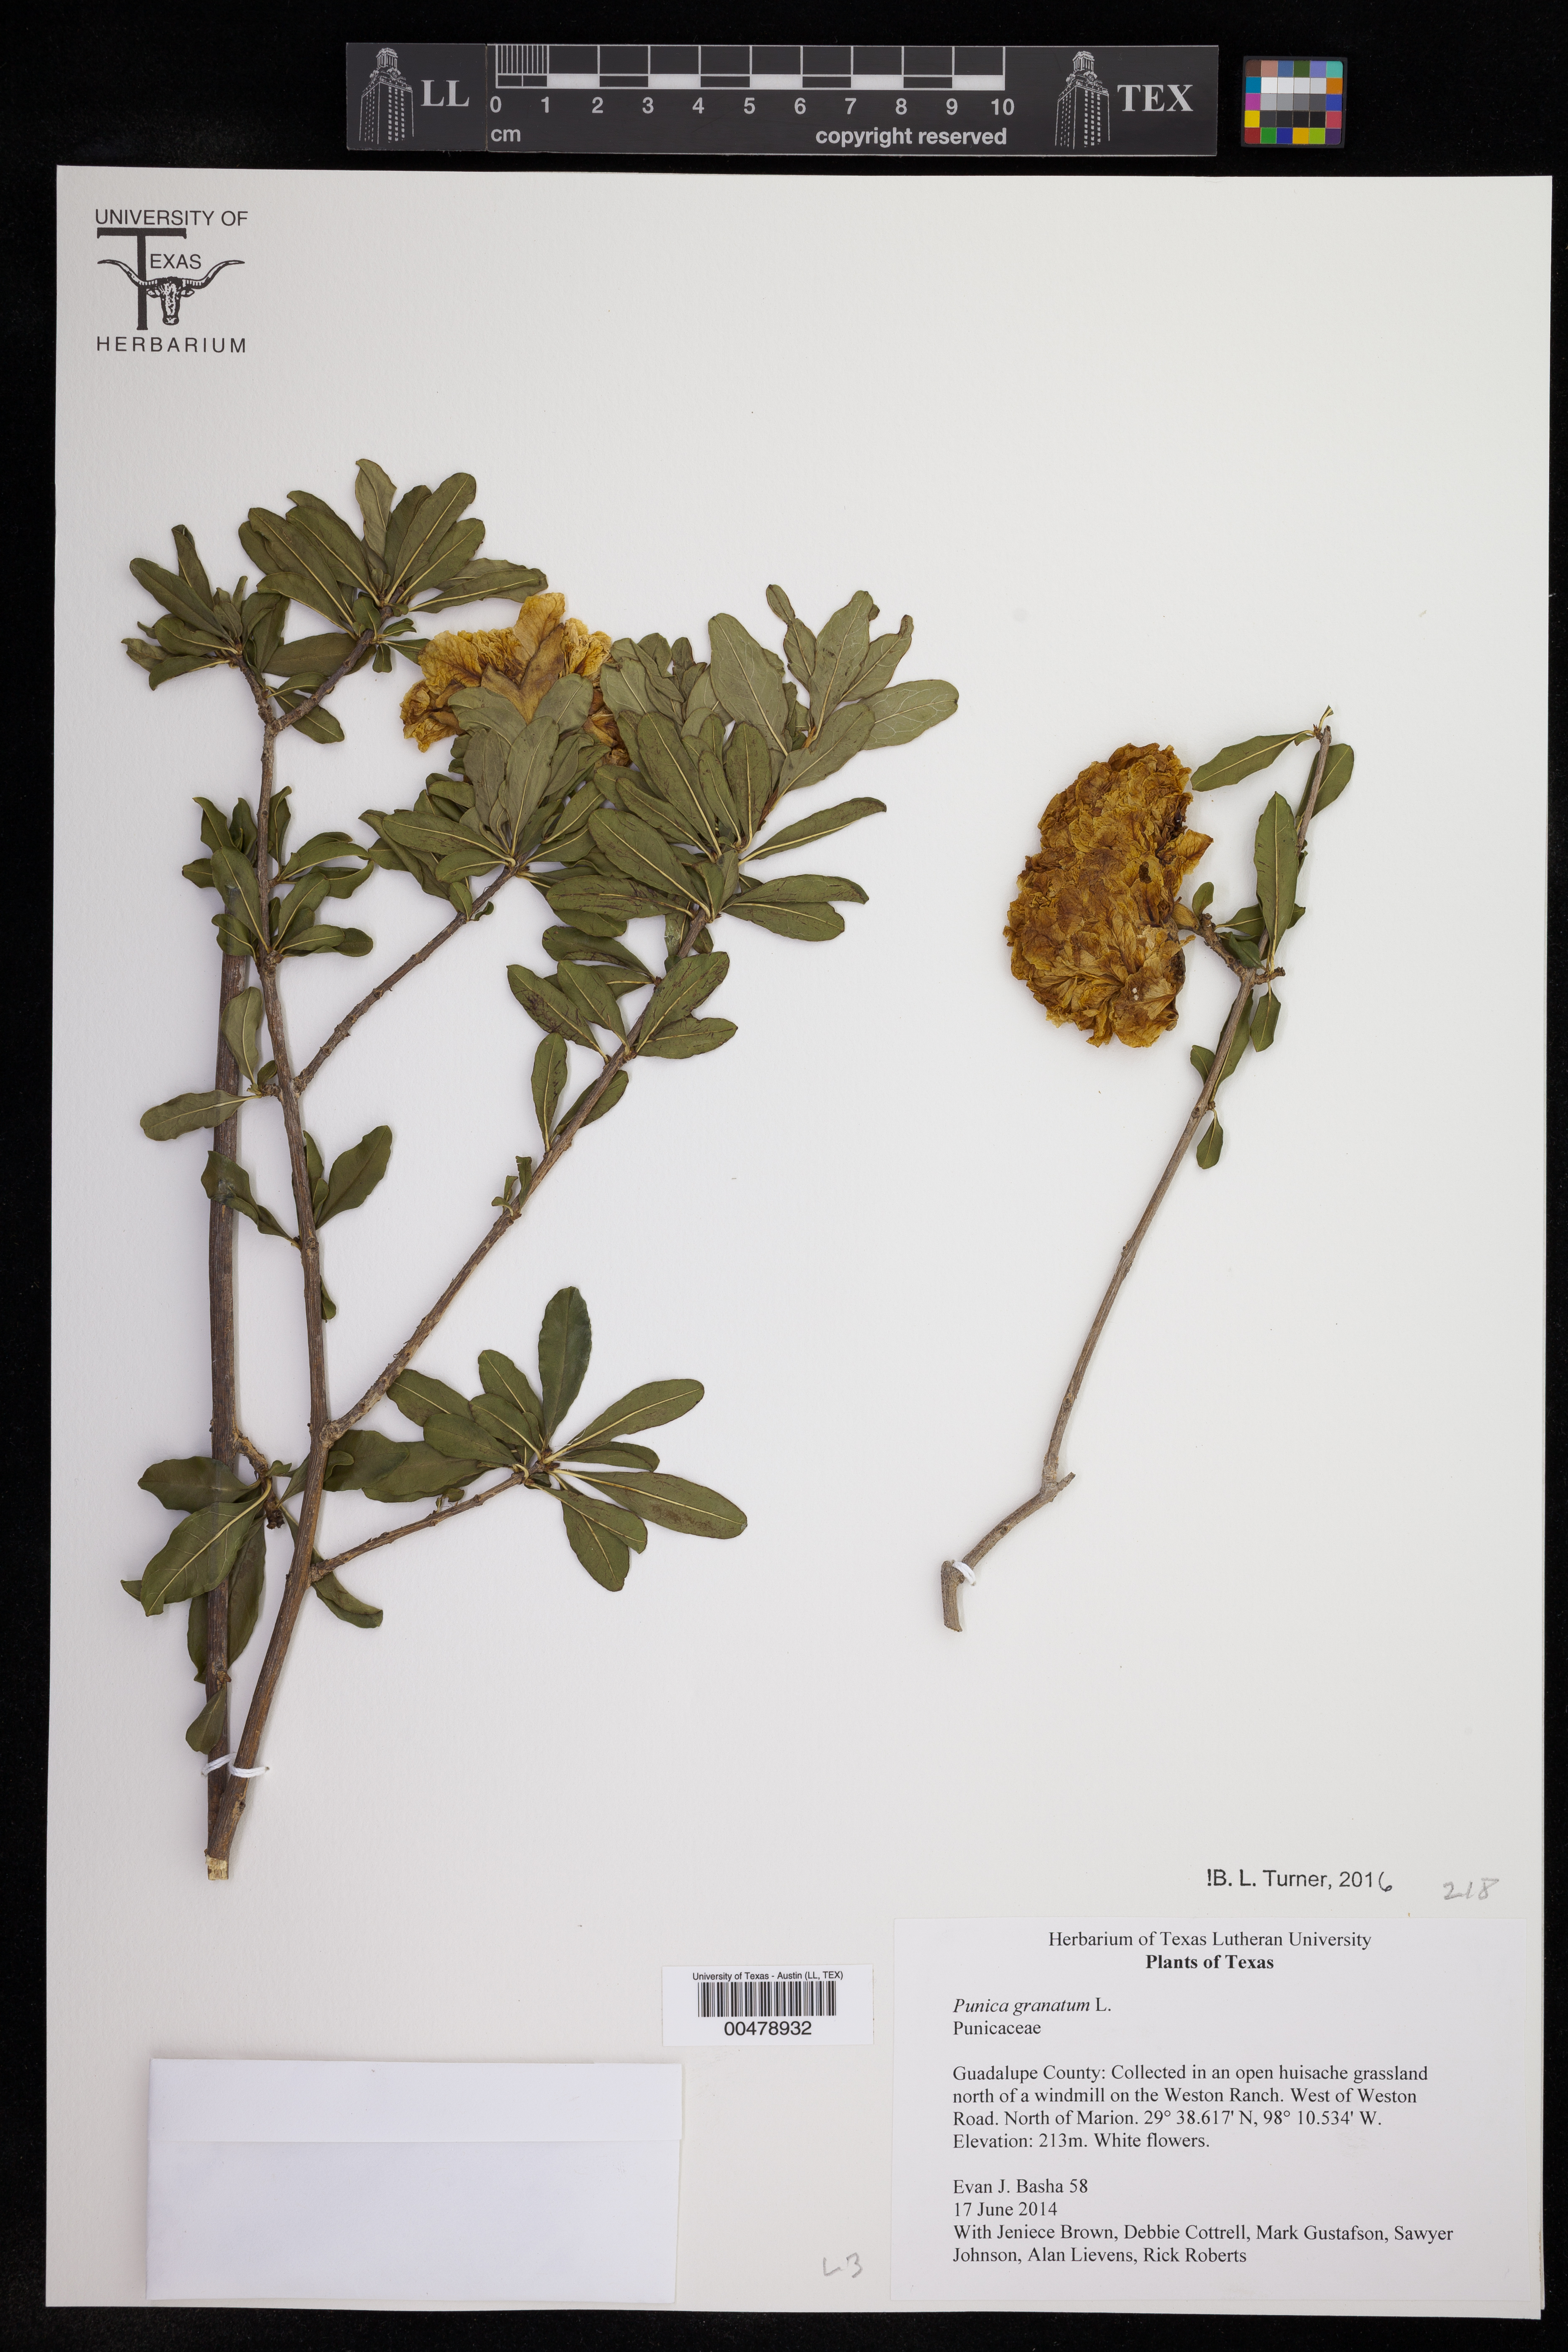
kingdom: Plantae
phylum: Tracheophyta
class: Magnoliopsida
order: Myrtales
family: Lythraceae
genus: Punica
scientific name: Punica granatum
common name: Pomegranate
